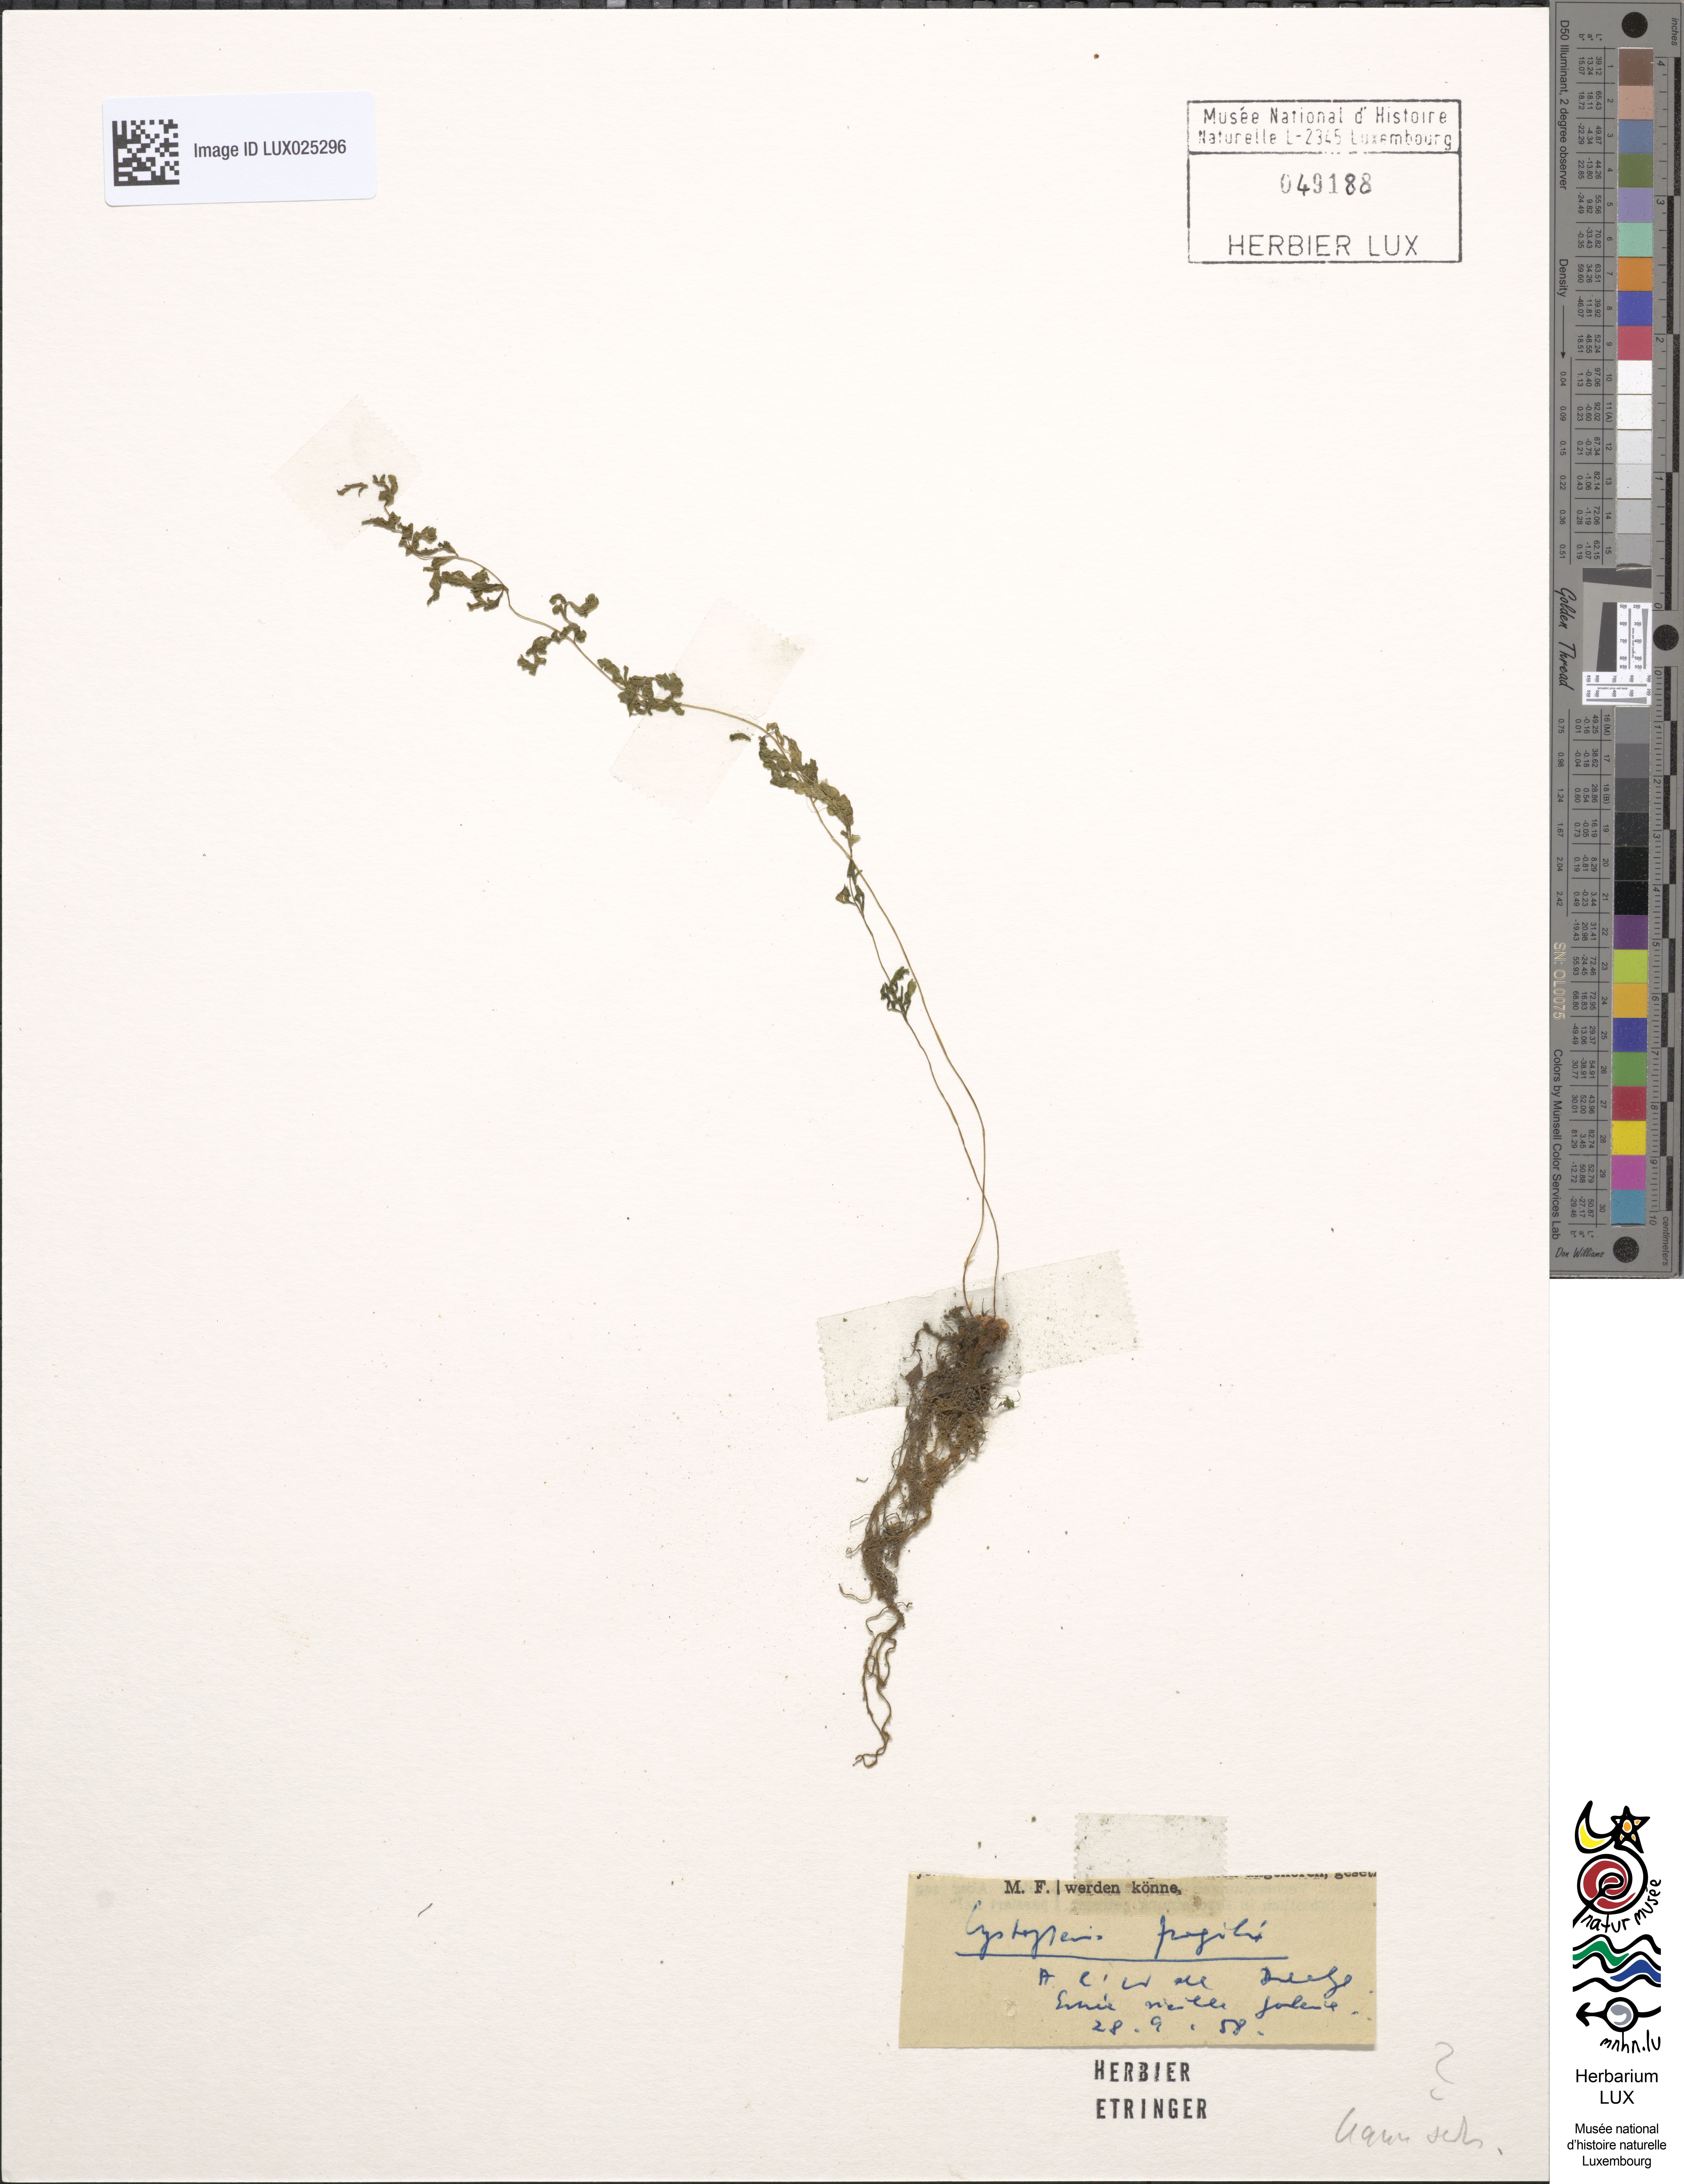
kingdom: Plantae
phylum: Tracheophyta
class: Polypodiopsida
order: Polypodiales
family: Cystopteridaceae
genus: Cystopteris
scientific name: Cystopteris fragilis
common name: Brittle bladder fern
